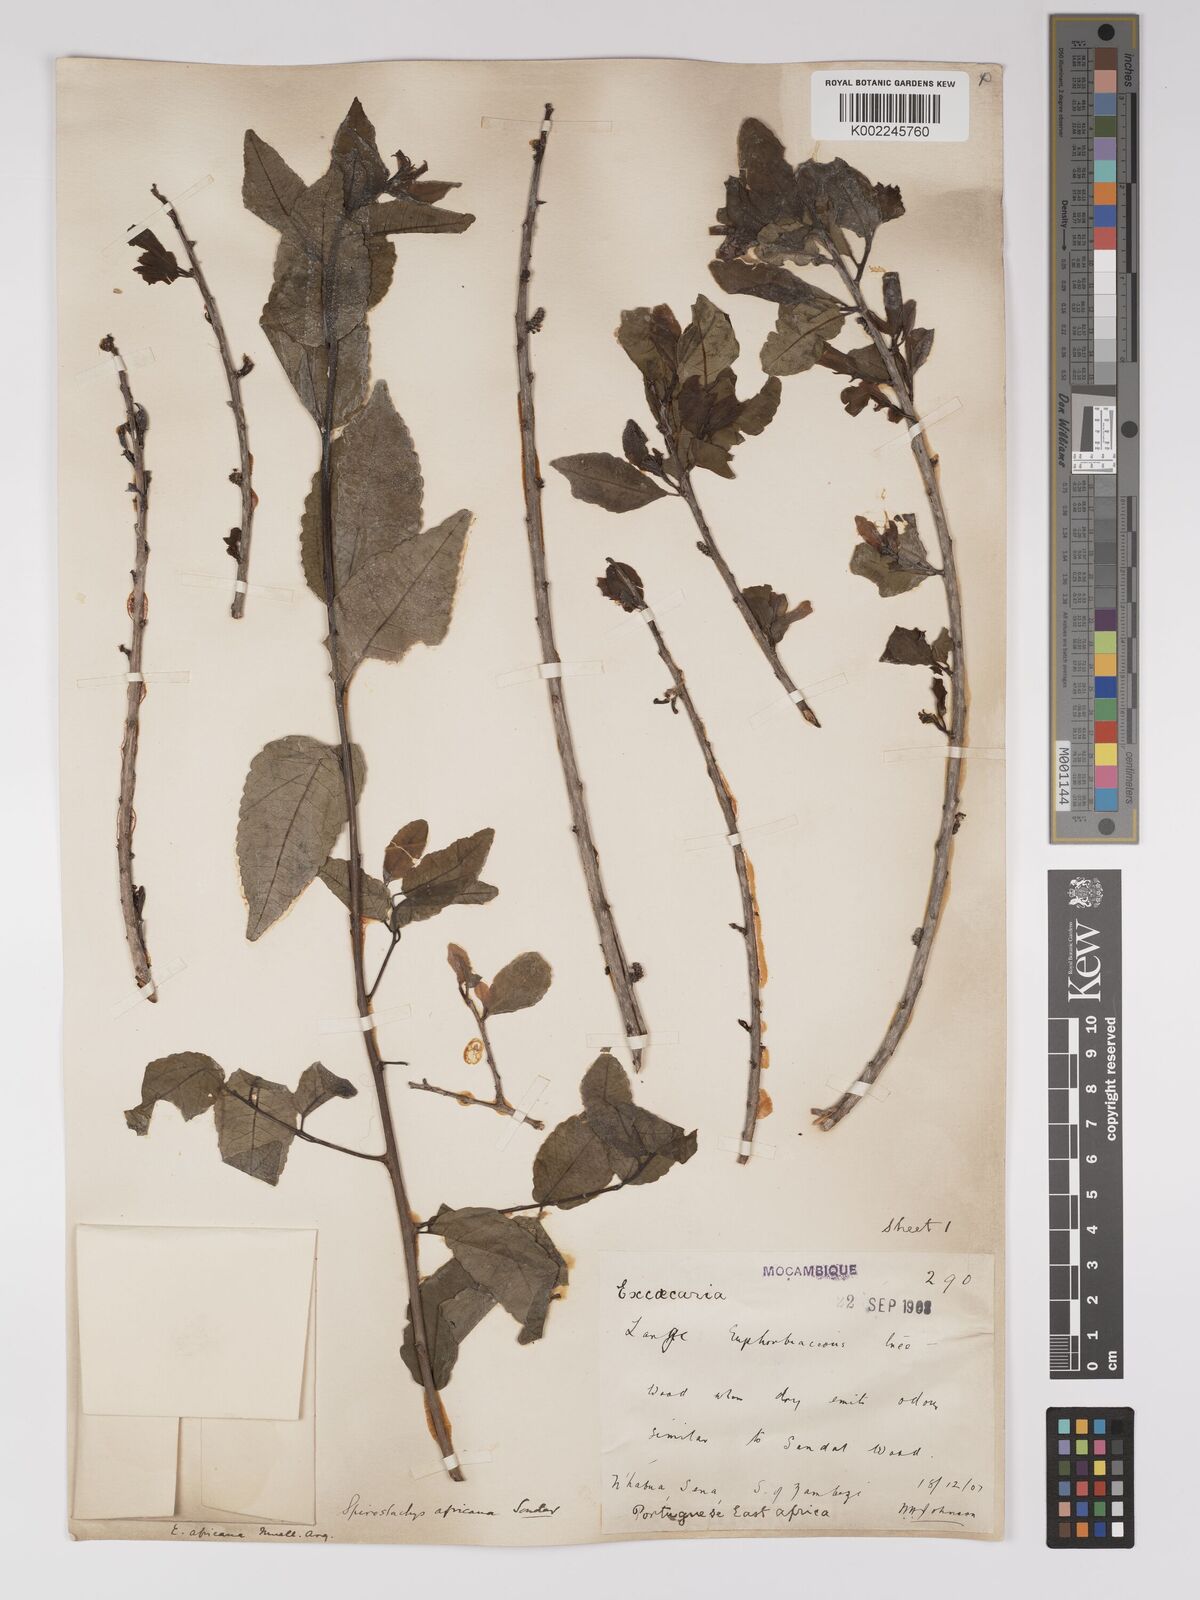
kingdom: Plantae
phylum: Tracheophyta
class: Magnoliopsida
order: Malpighiales
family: Euphorbiaceae
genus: Spirostachys
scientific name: Spirostachys africana
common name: Tamboti
